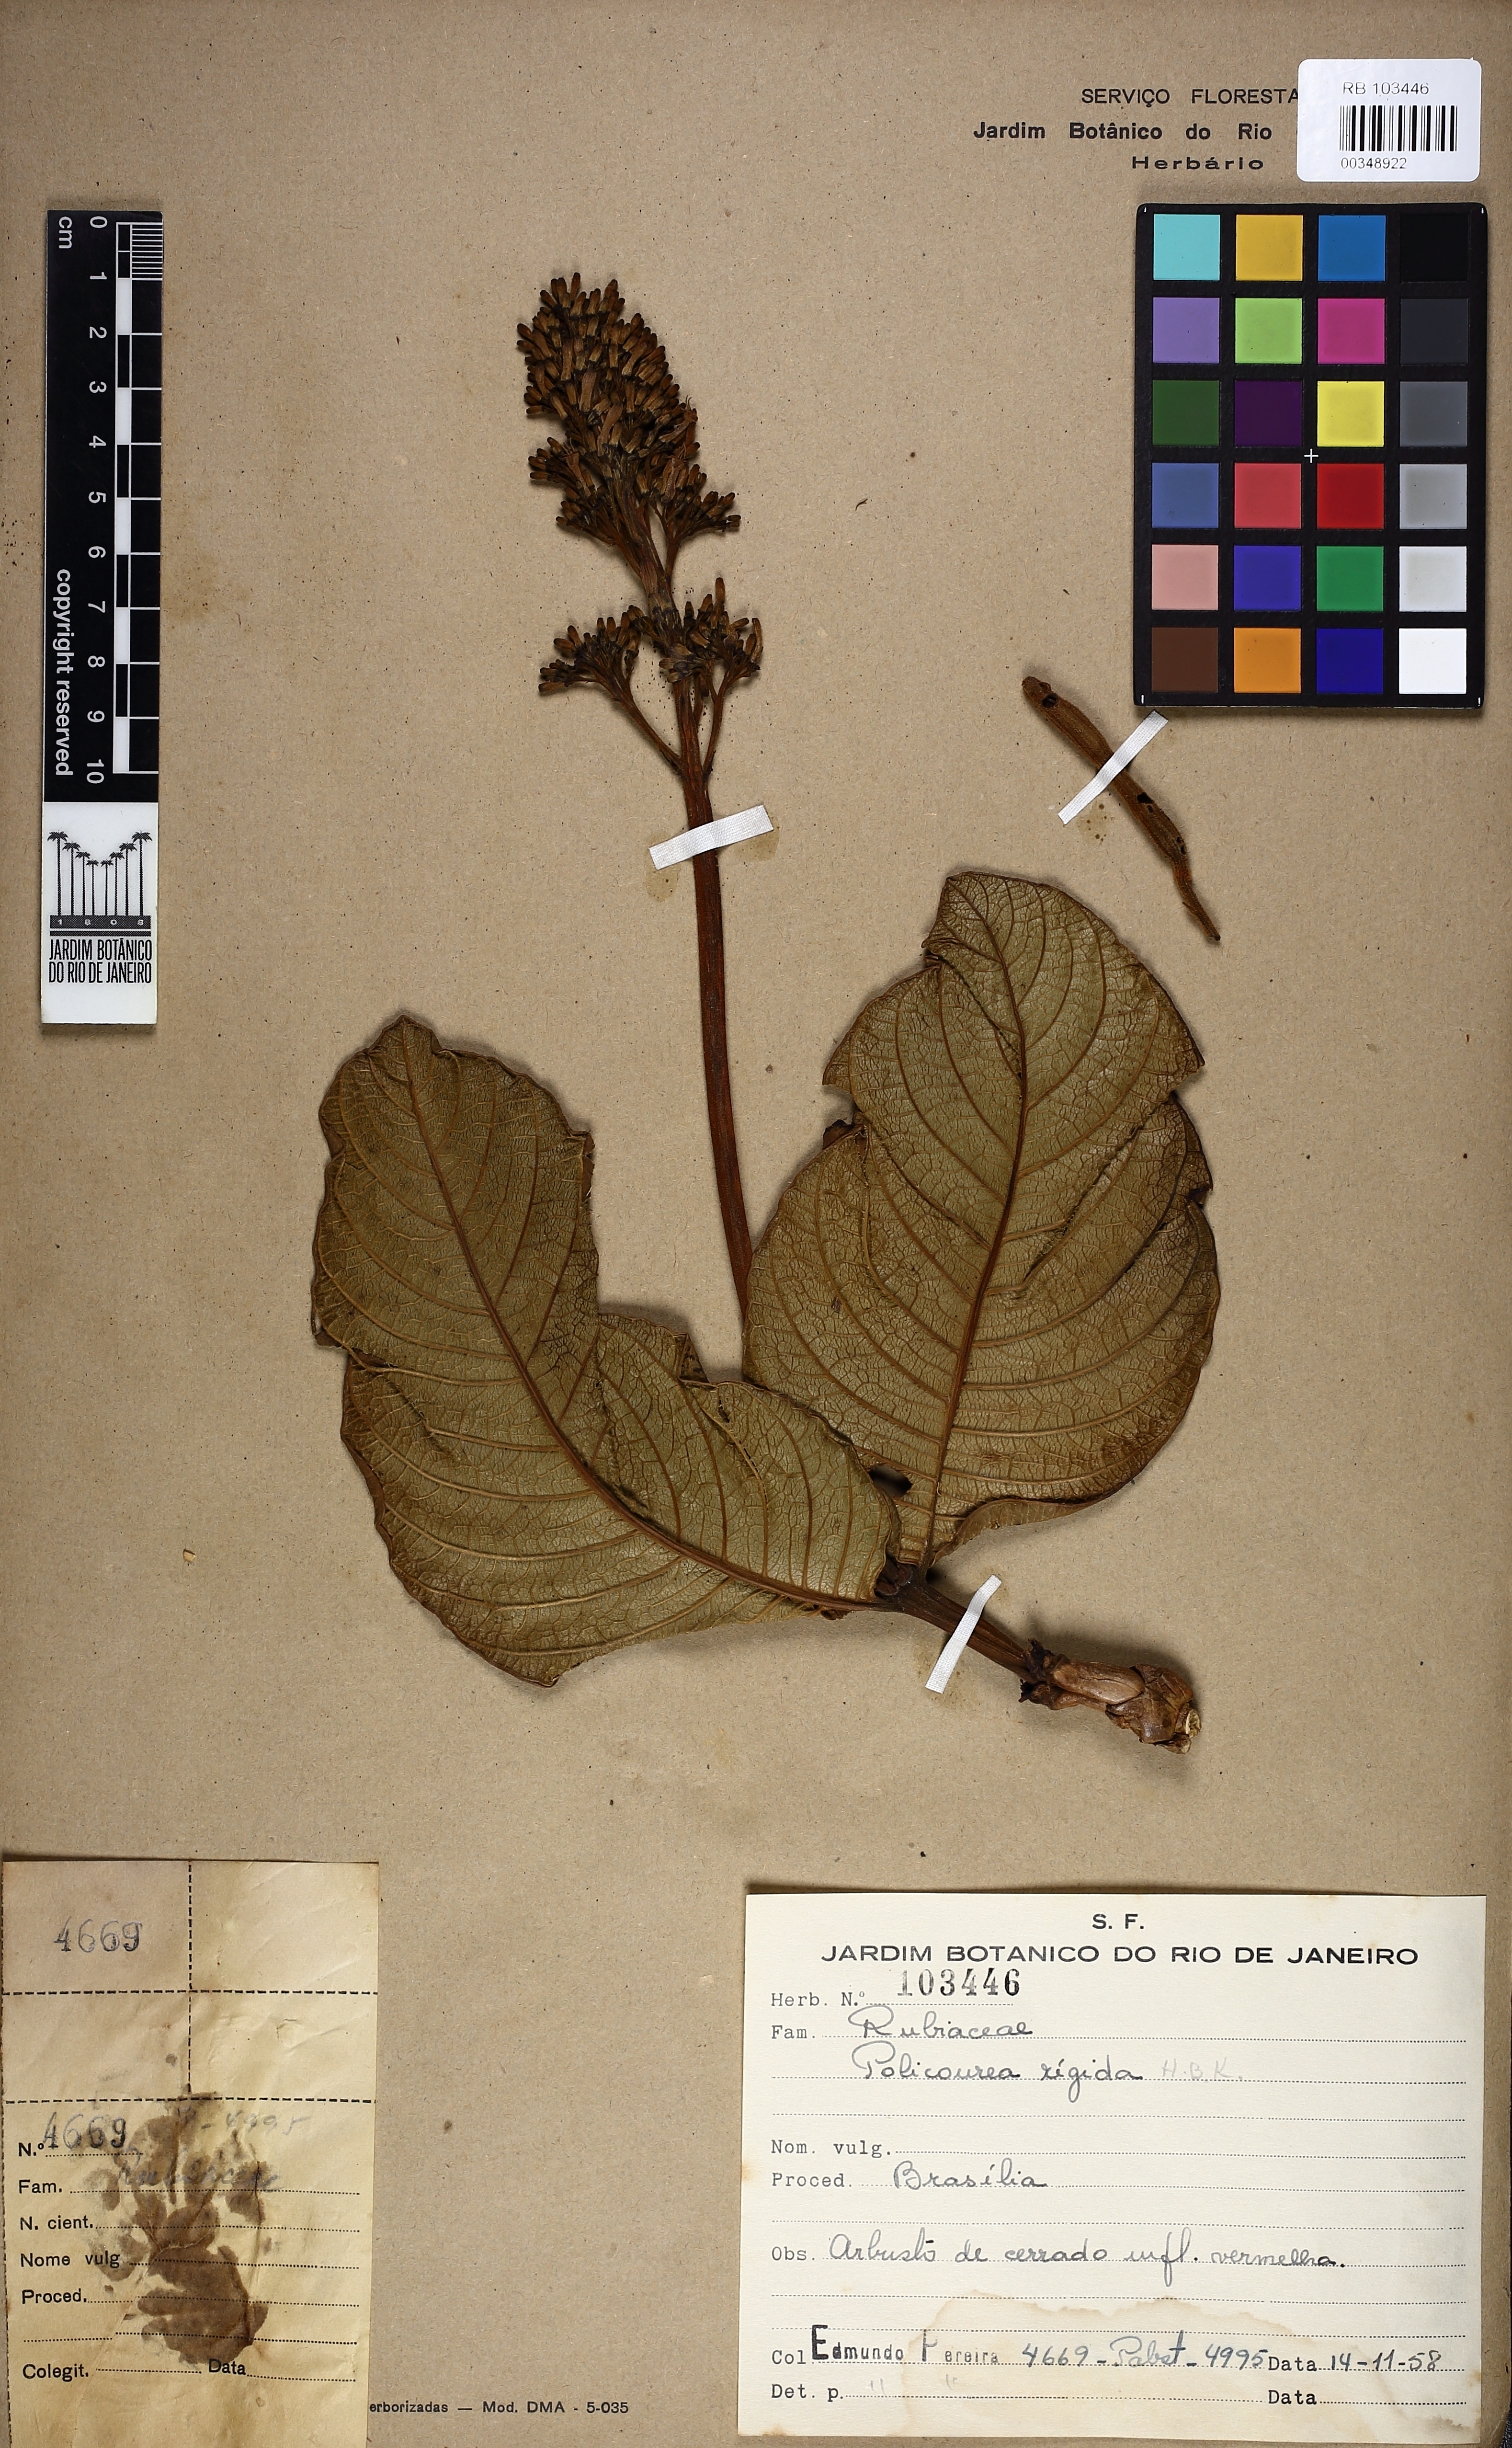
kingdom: Plantae
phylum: Tracheophyta
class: Magnoliopsida
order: Gentianales
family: Rubiaceae
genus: Palicourea
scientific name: Palicourea rigida
